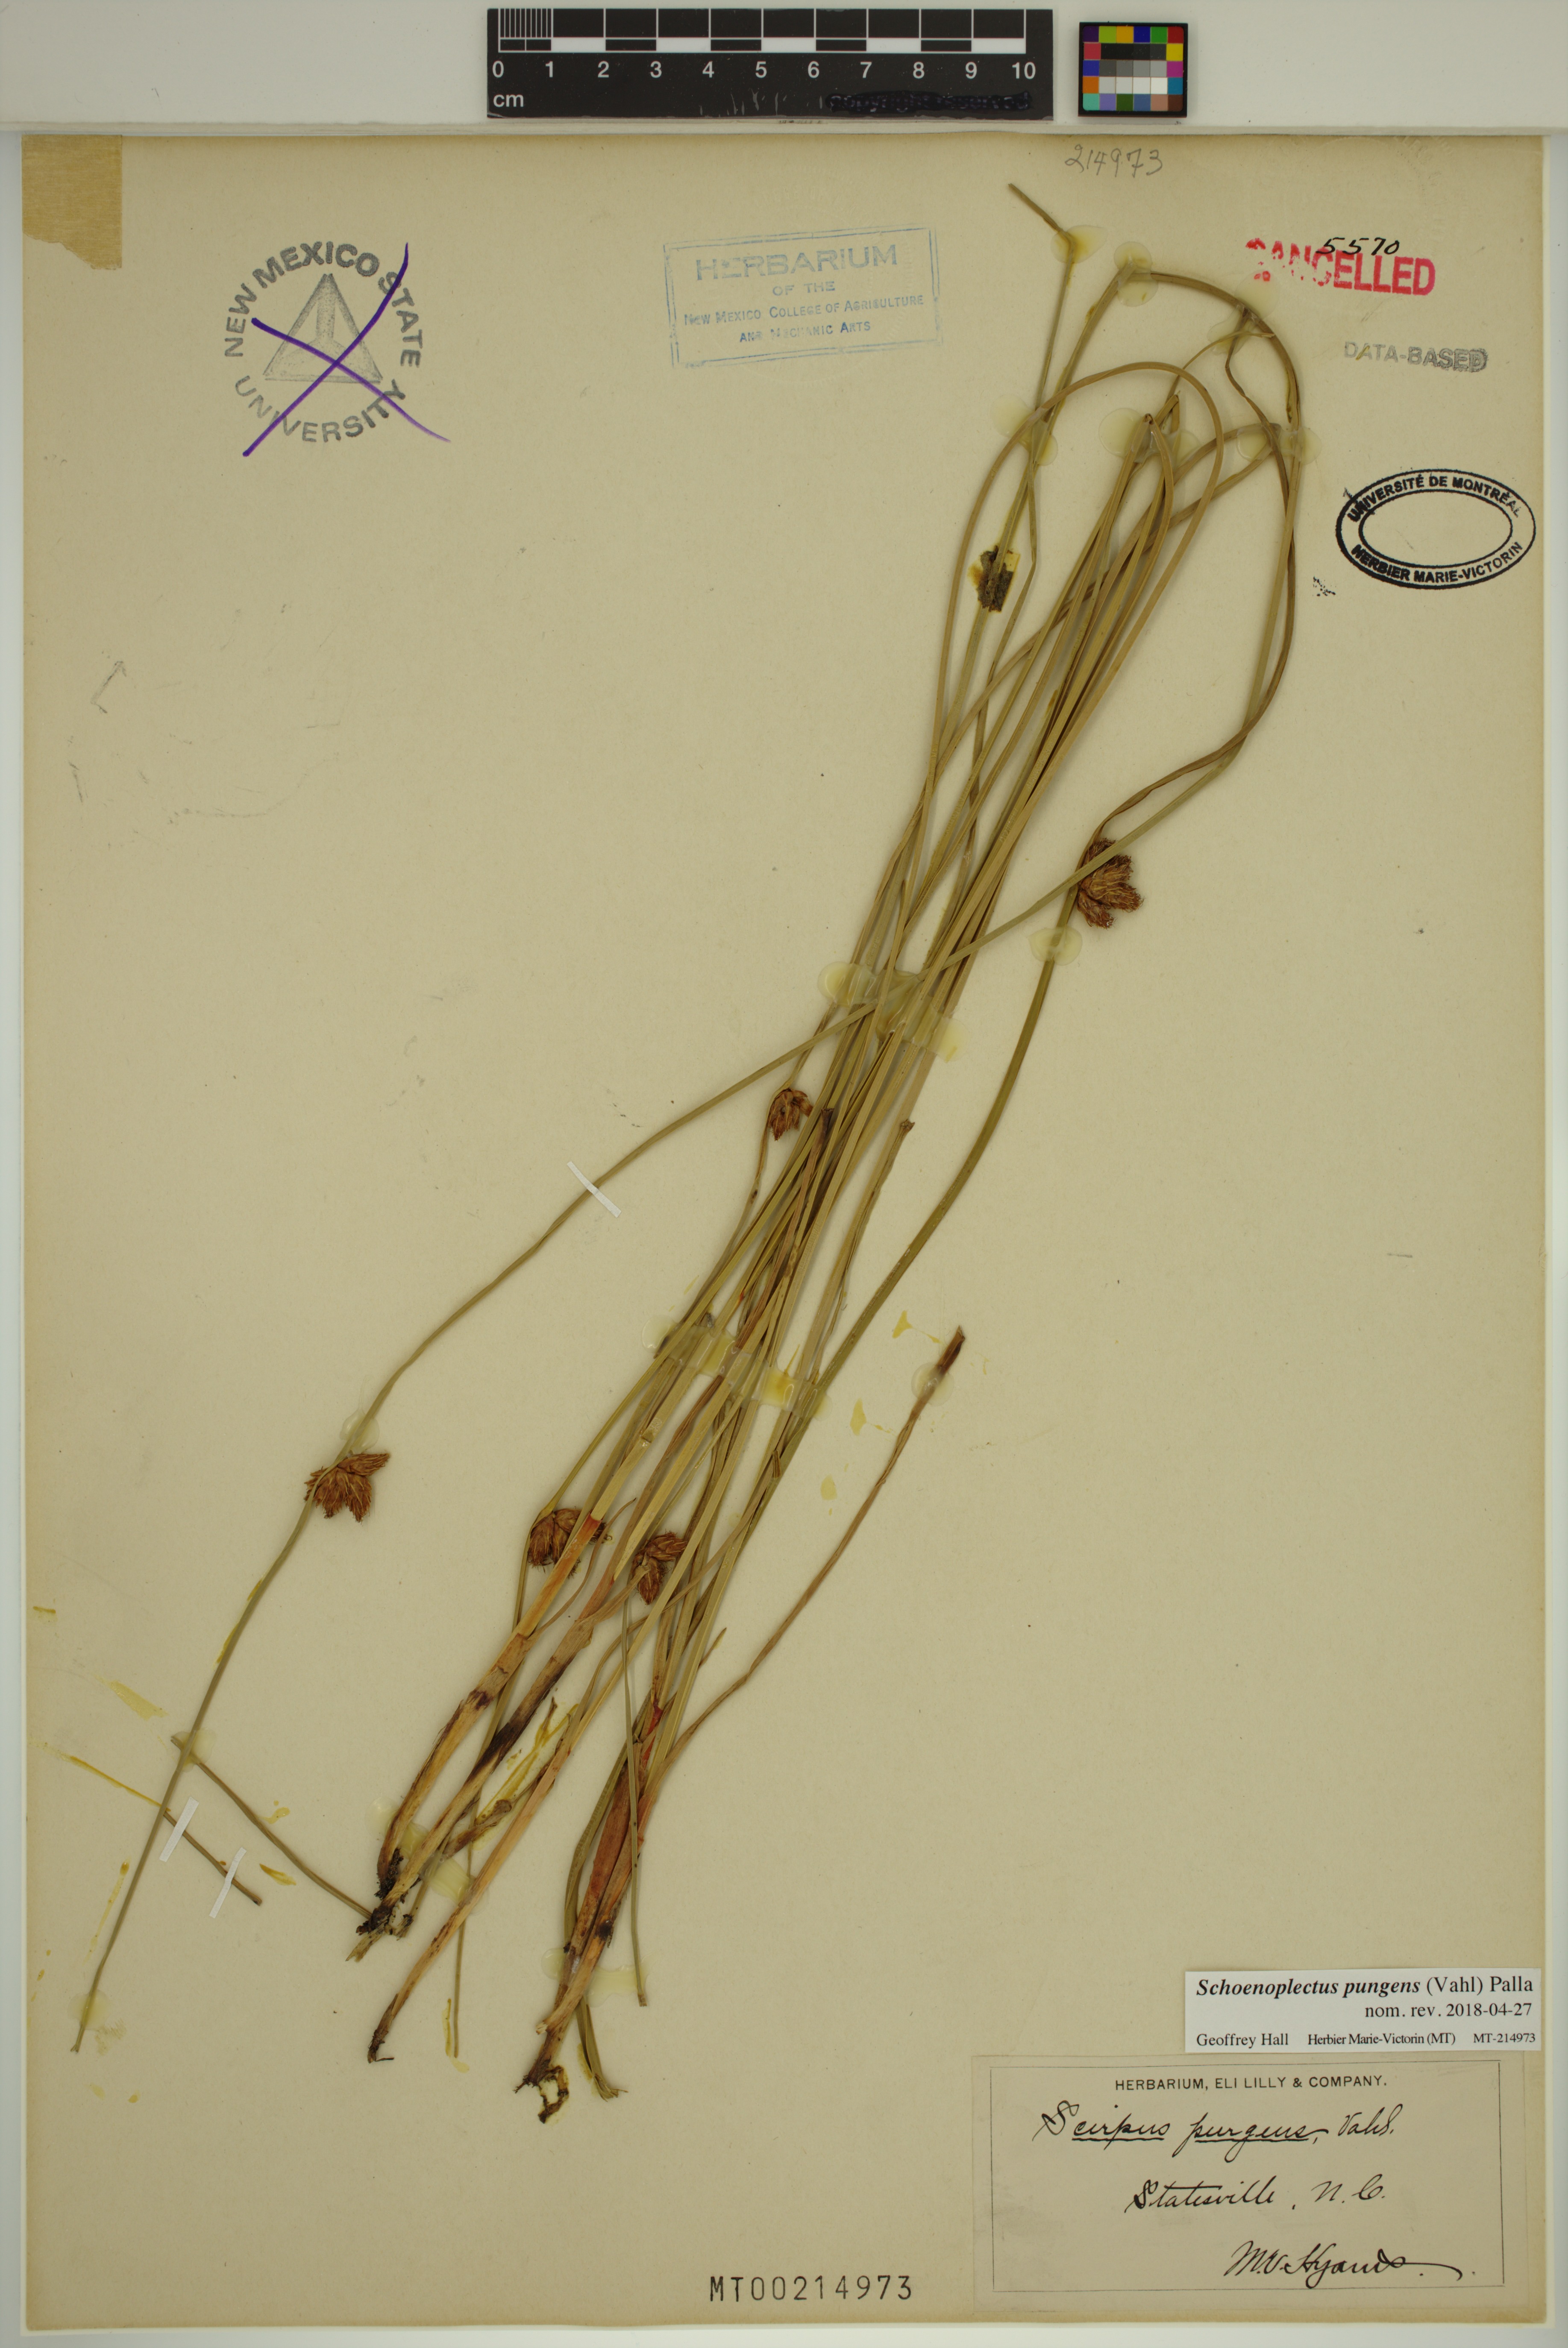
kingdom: Plantae
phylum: Tracheophyta
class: Liliopsida
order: Poales
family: Cyperaceae
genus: Schoenoplectus
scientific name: Schoenoplectus pungens
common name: Sharp club-rush
